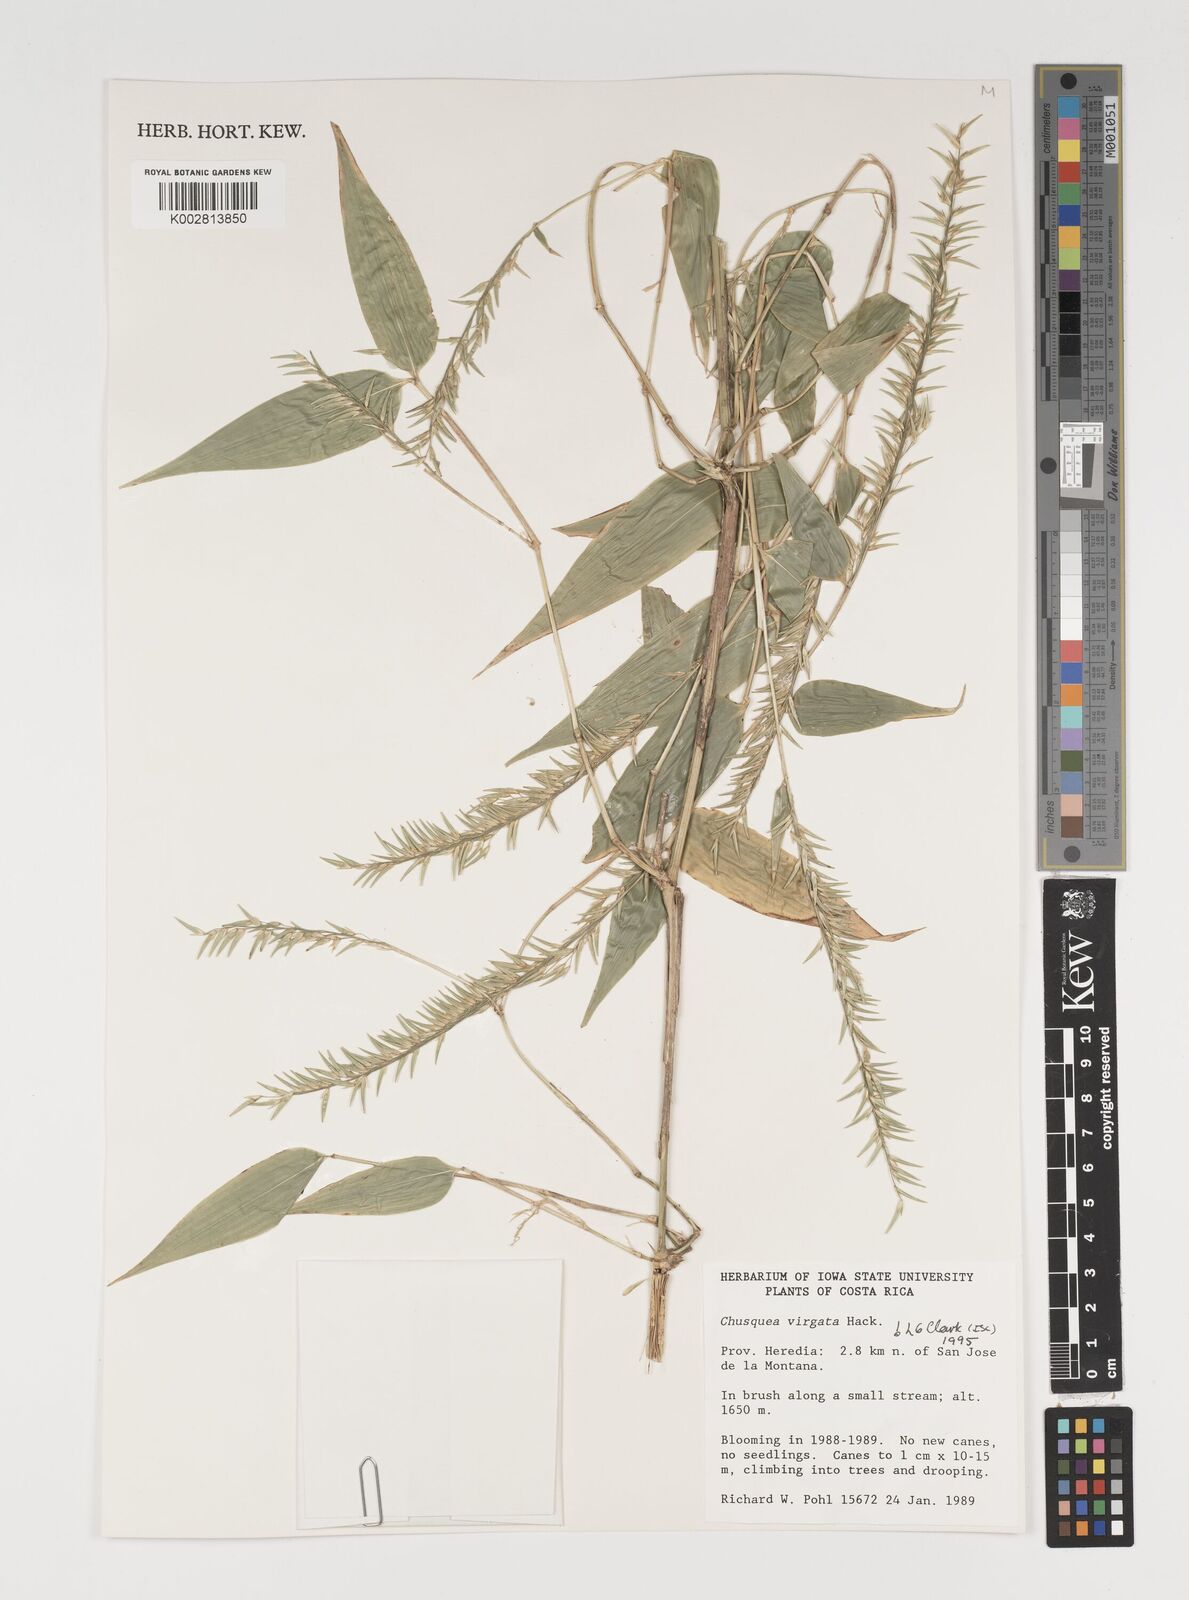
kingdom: Plantae
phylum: Tracheophyta
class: Liliopsida
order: Poales
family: Poaceae
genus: Chusquea
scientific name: Chusquea virgata
